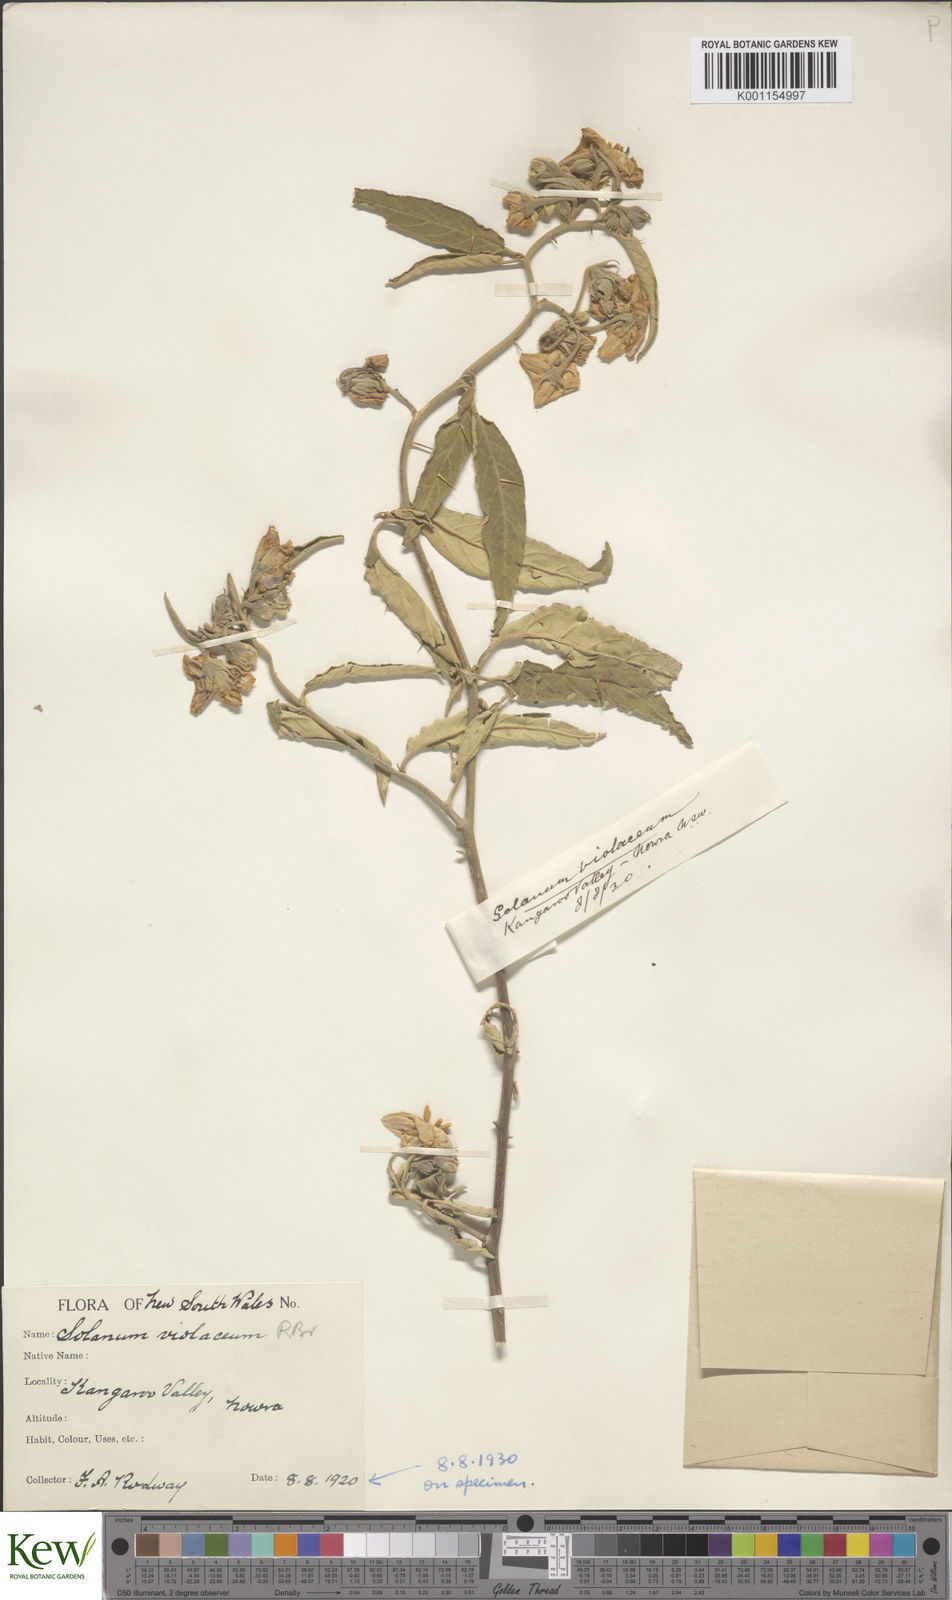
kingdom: Plantae
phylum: Tracheophyta
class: Magnoliopsida
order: Solanales
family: Solanaceae
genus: Solanum
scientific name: Solanum brownii
